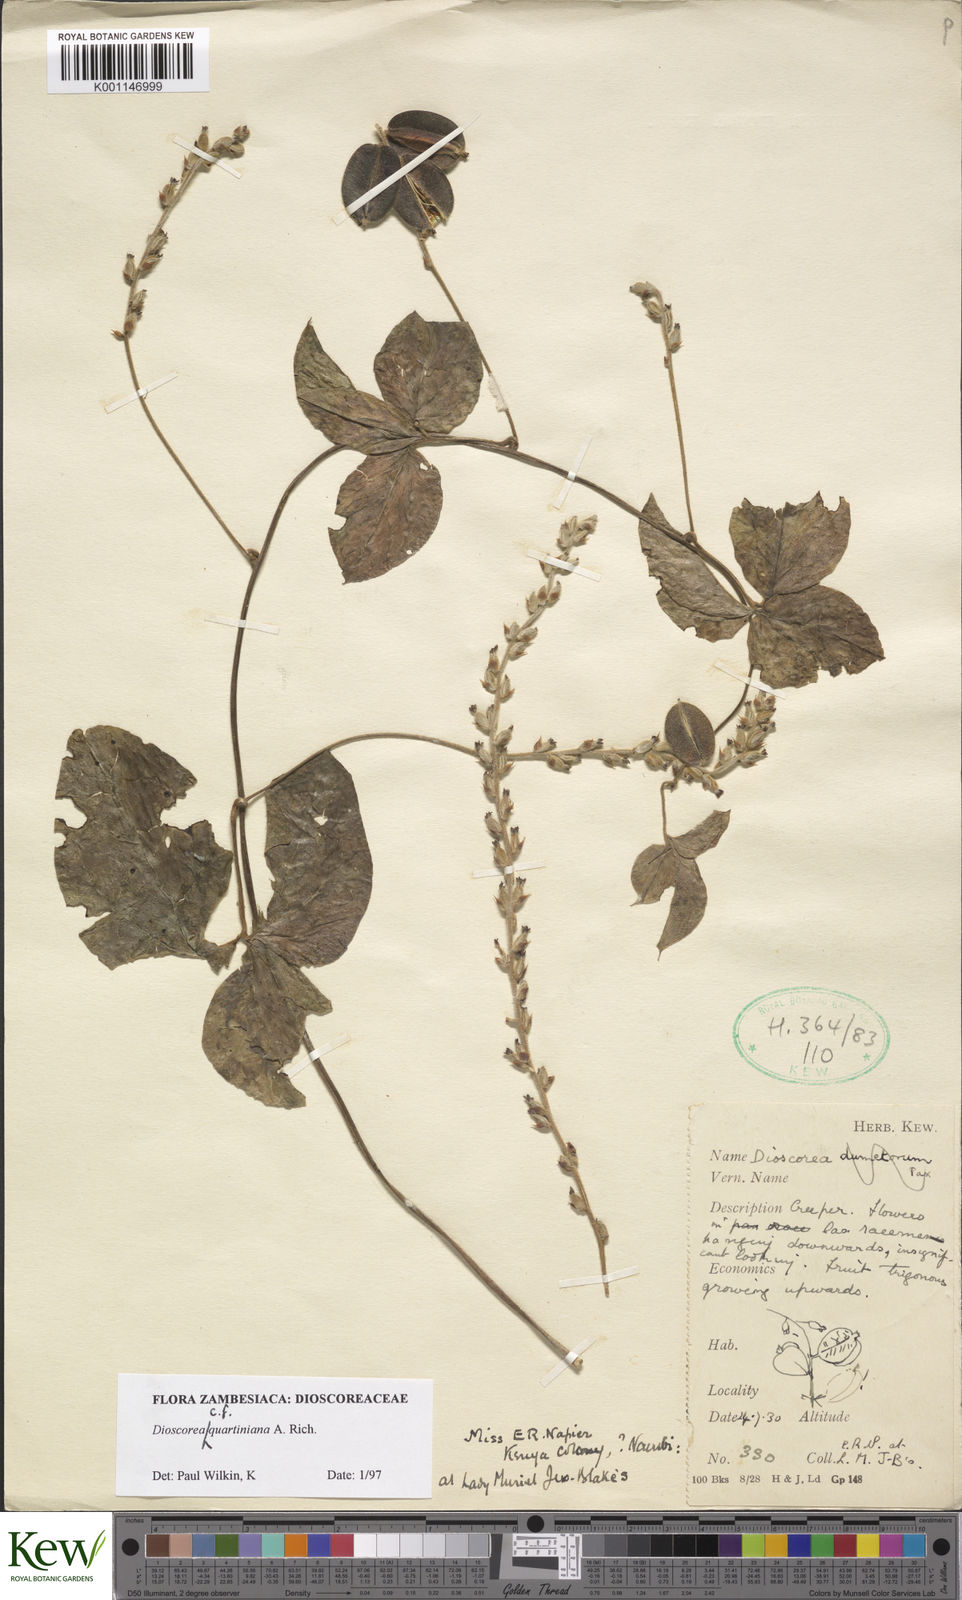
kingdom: Plantae
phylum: Tracheophyta
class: Liliopsida
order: Dioscoreales
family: Dioscoreaceae
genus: Dioscorea
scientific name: Dioscorea quartiniana
